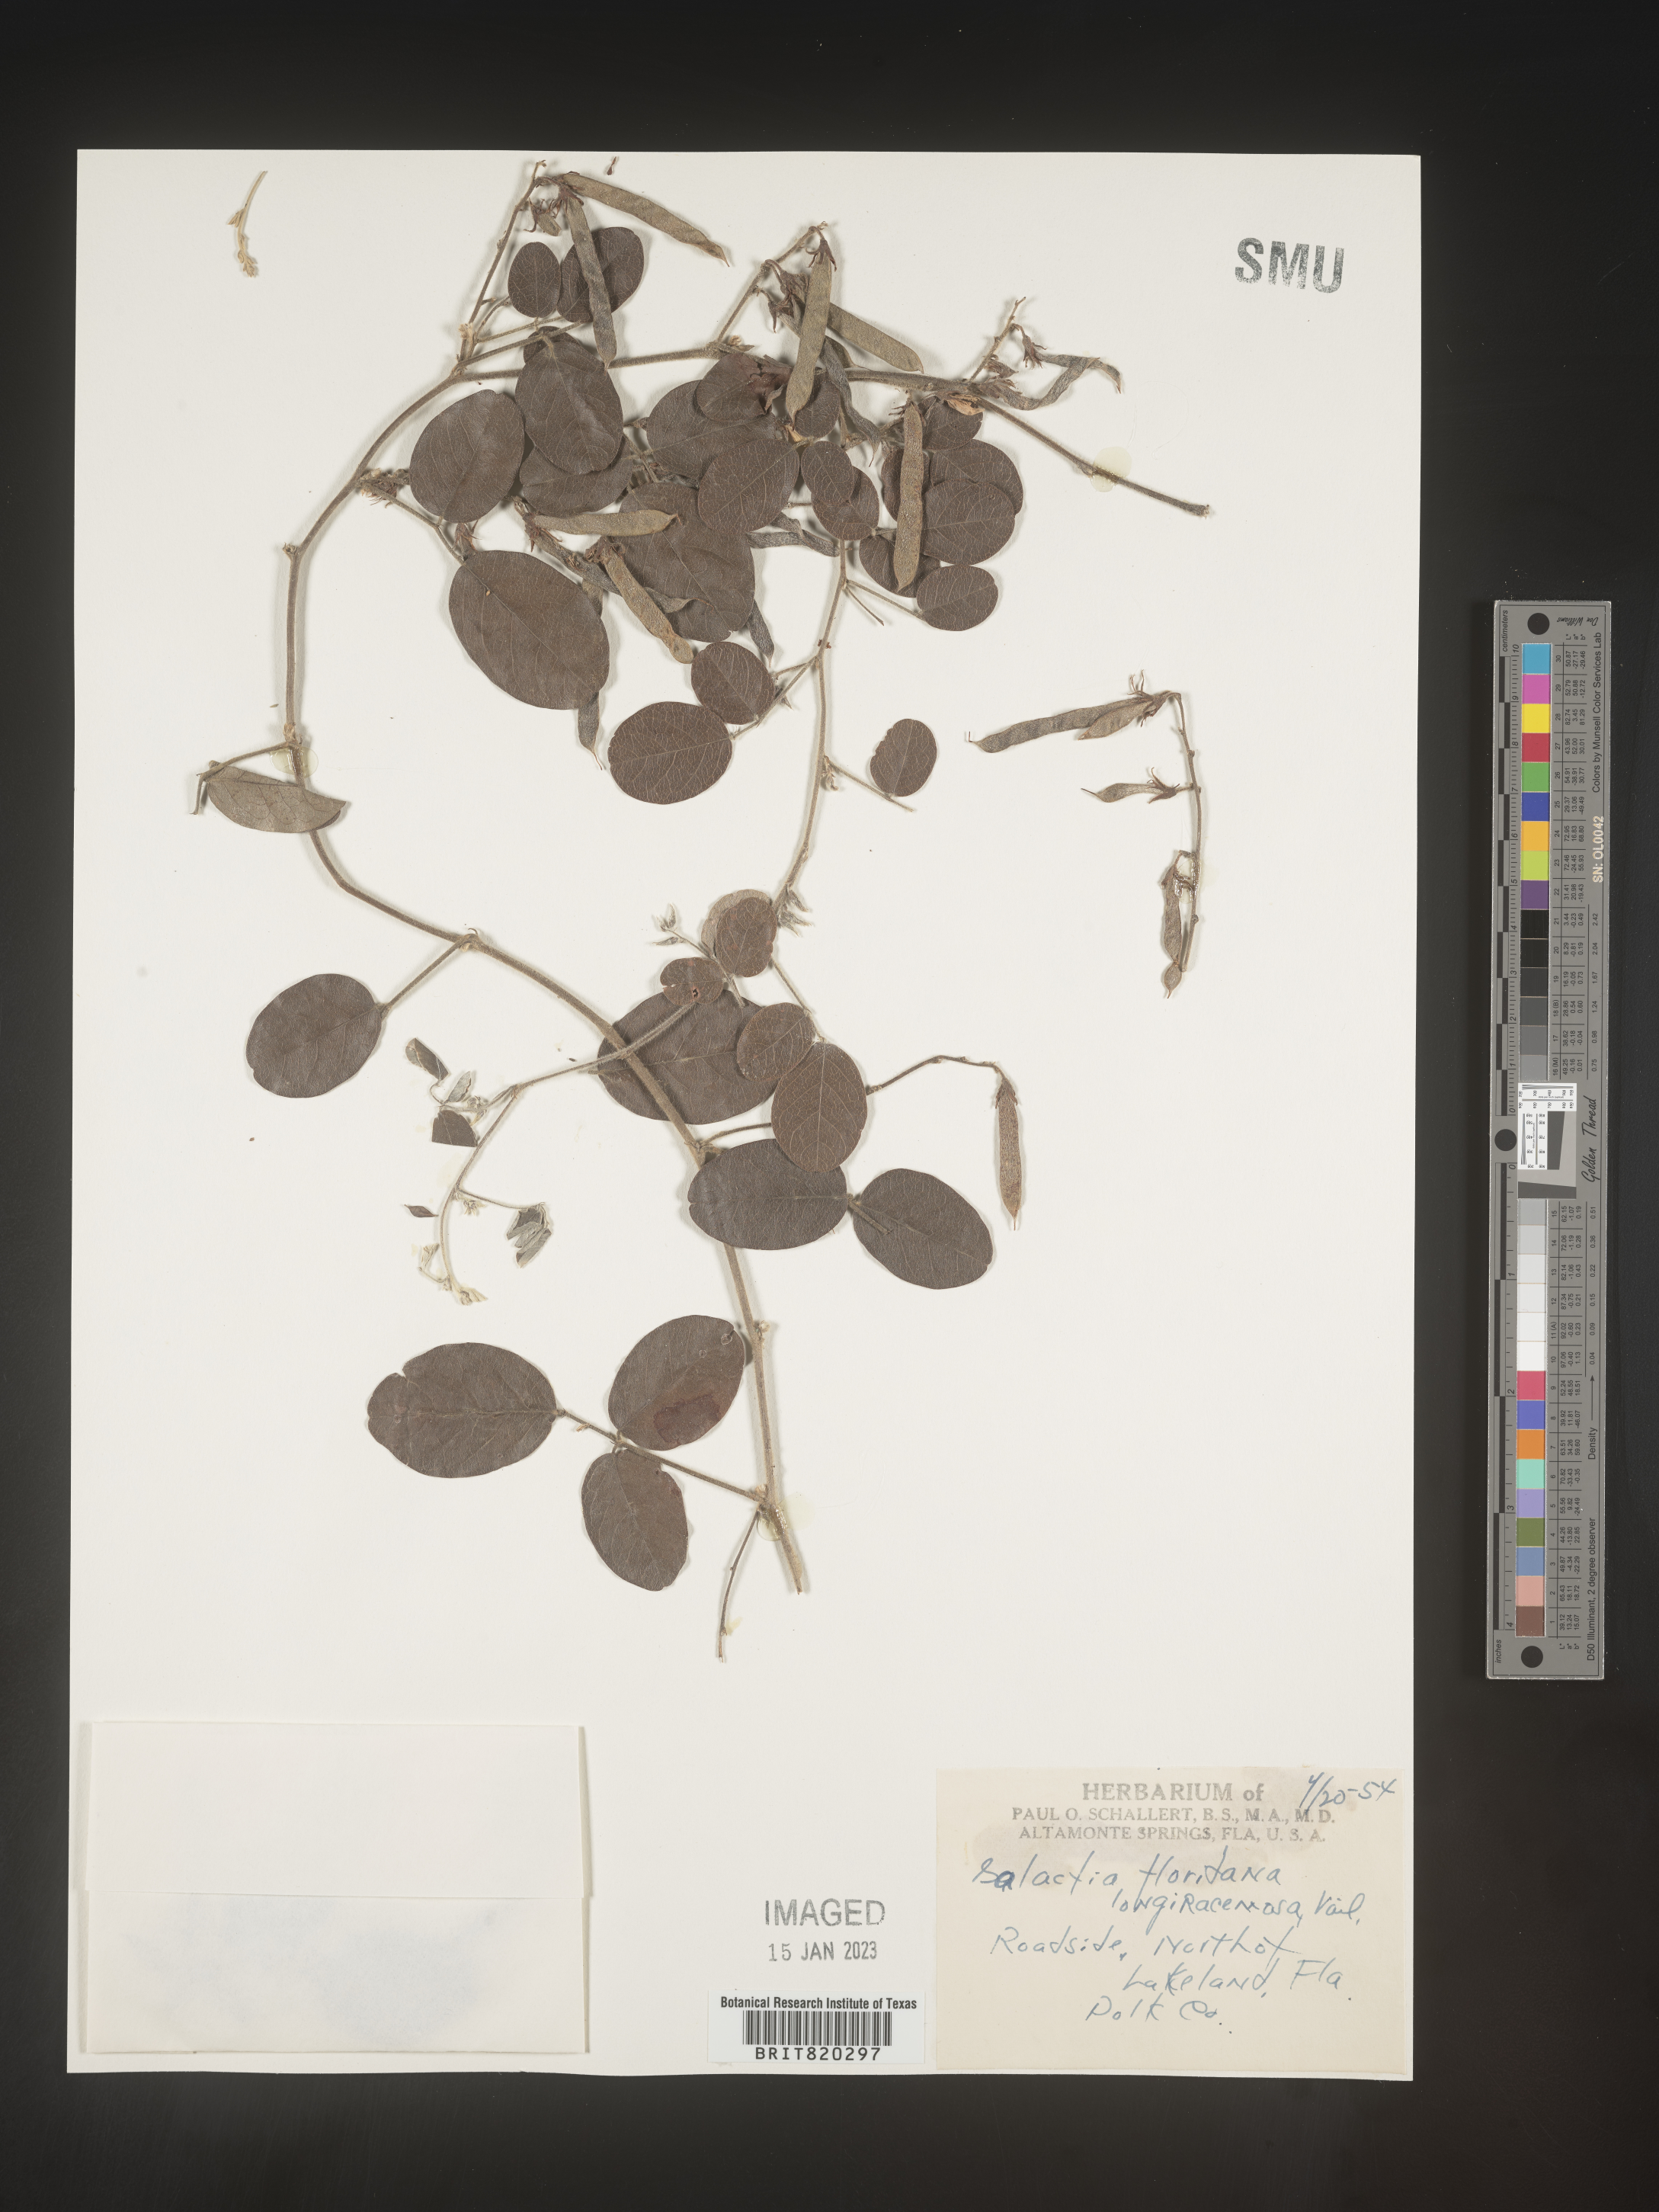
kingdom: Plantae
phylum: Tracheophyta
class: Magnoliopsida
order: Fabales
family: Fabaceae
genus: Galactia
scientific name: Galactia floridana
